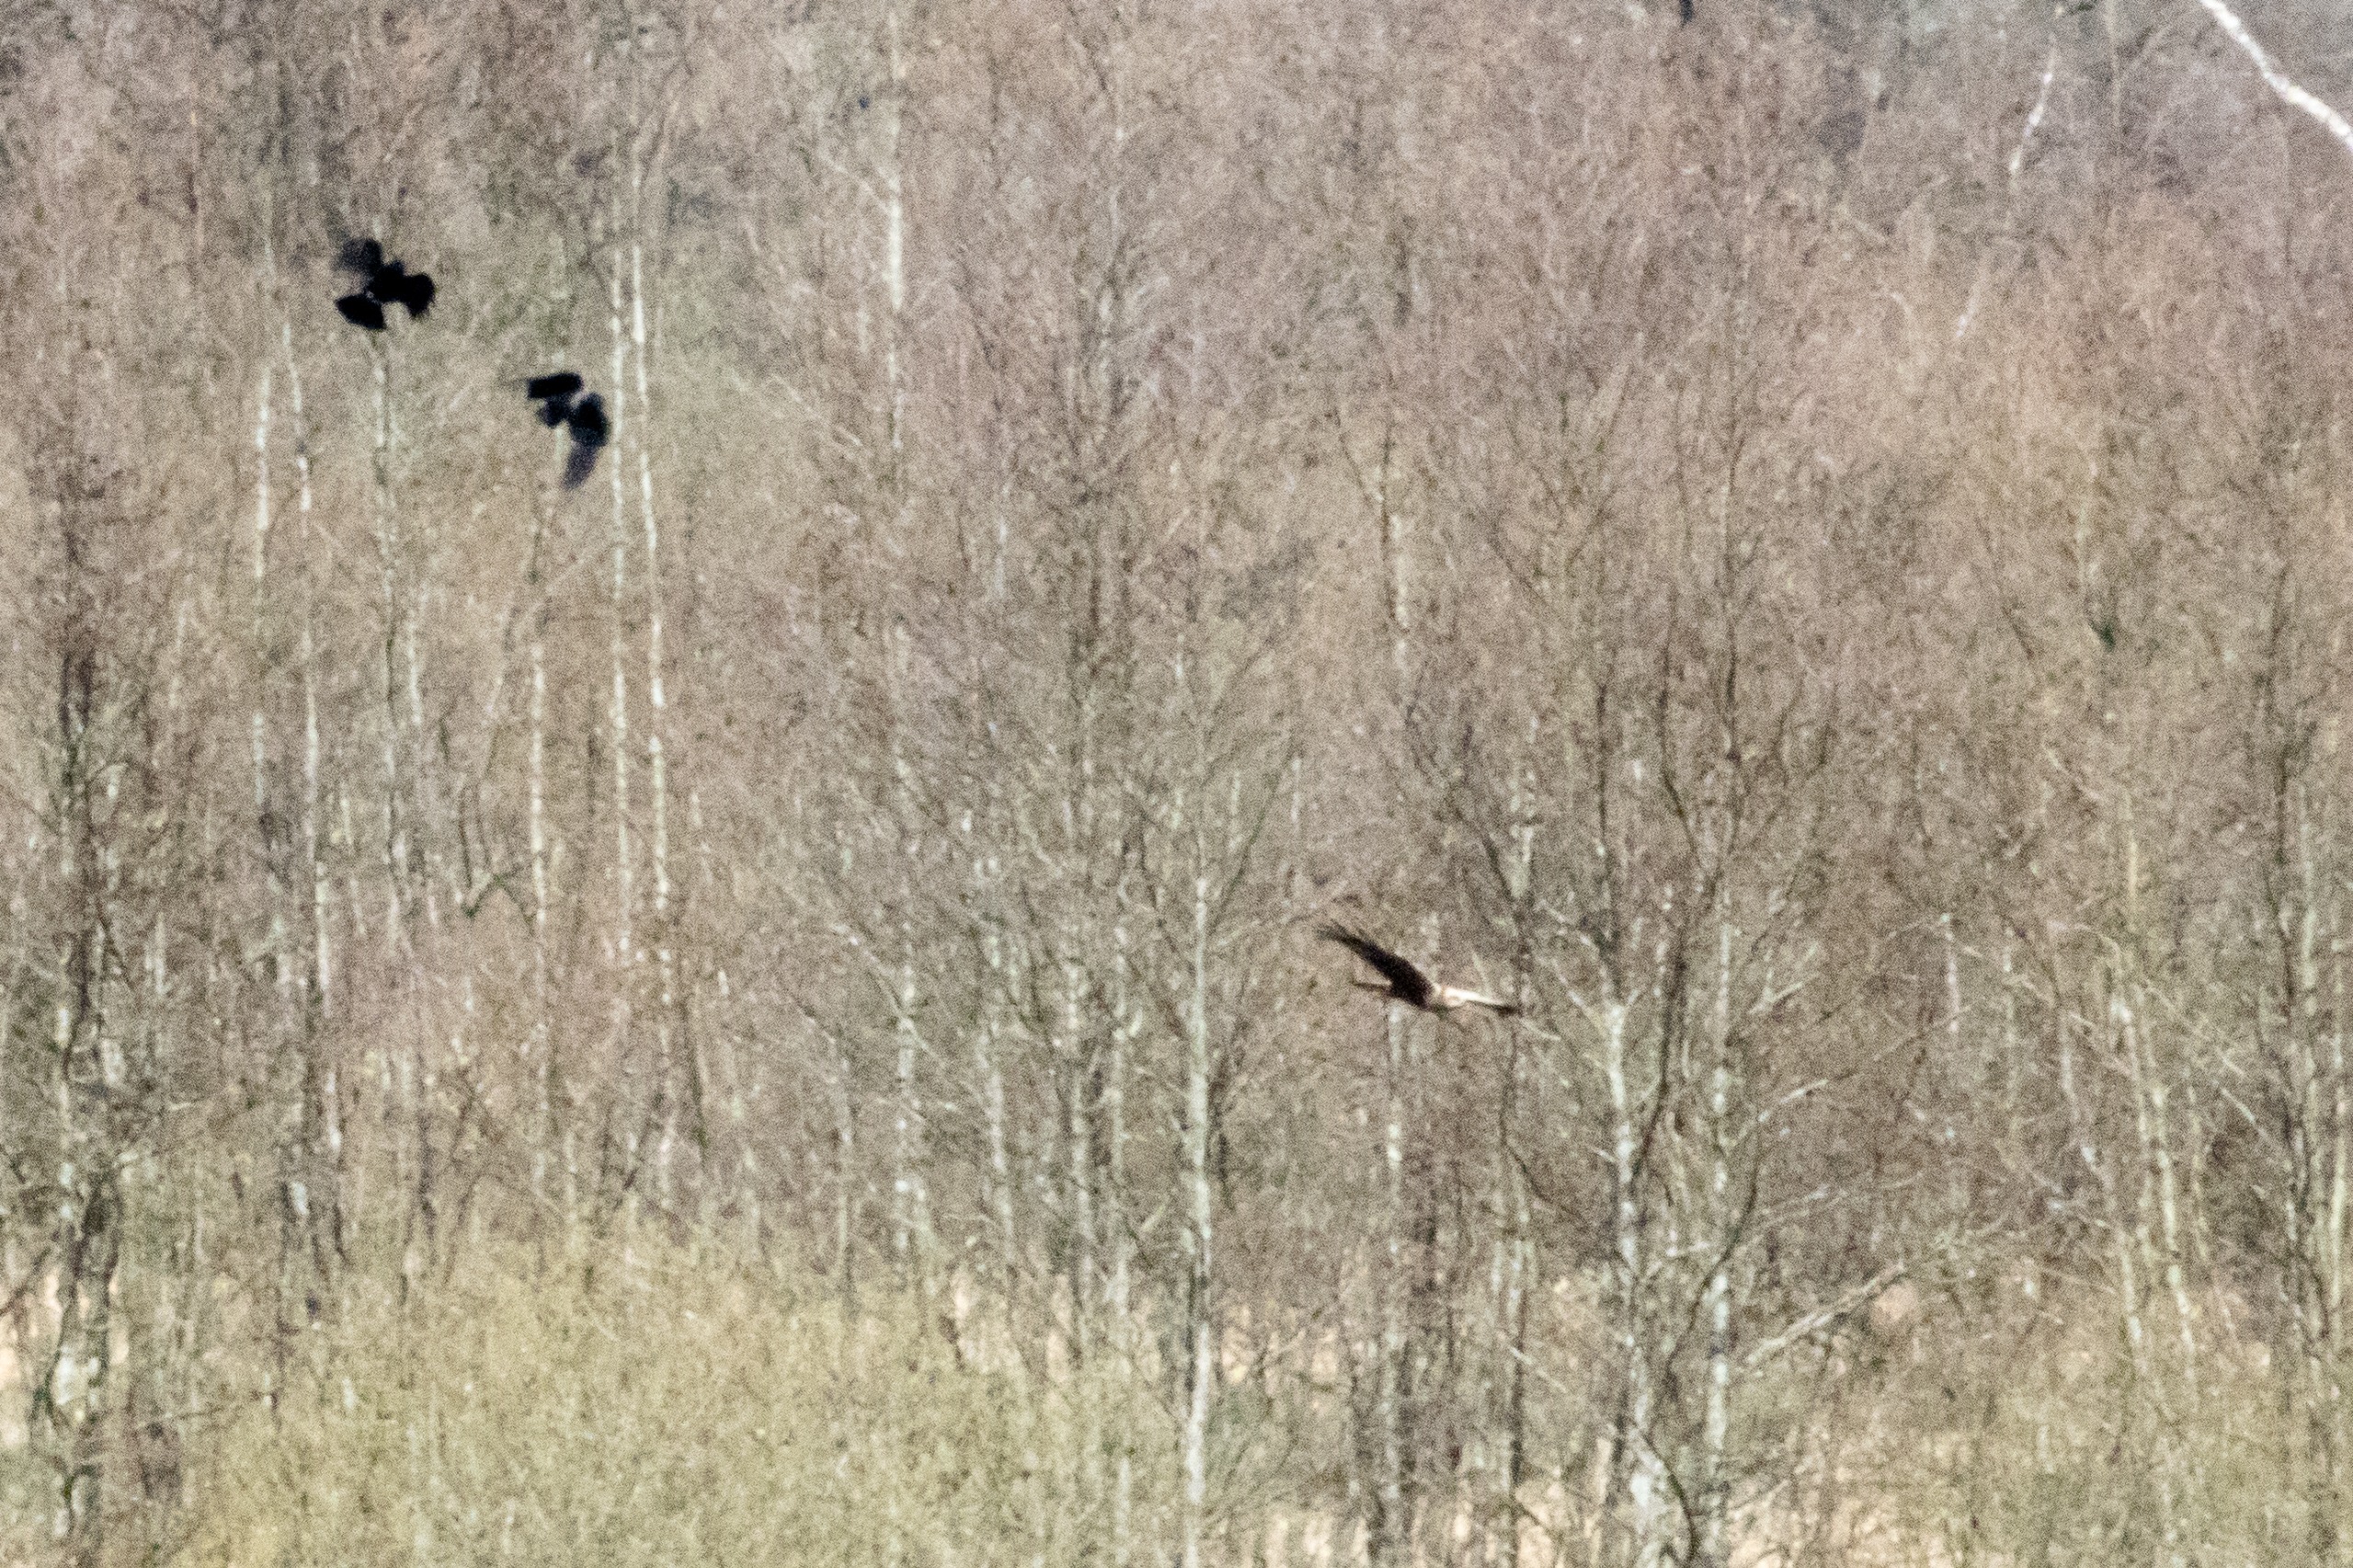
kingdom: Animalia
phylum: Chordata
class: Aves
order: Accipitriformes
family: Accipitridae
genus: Circus
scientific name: Circus aeruginosus
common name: Rørhøg
